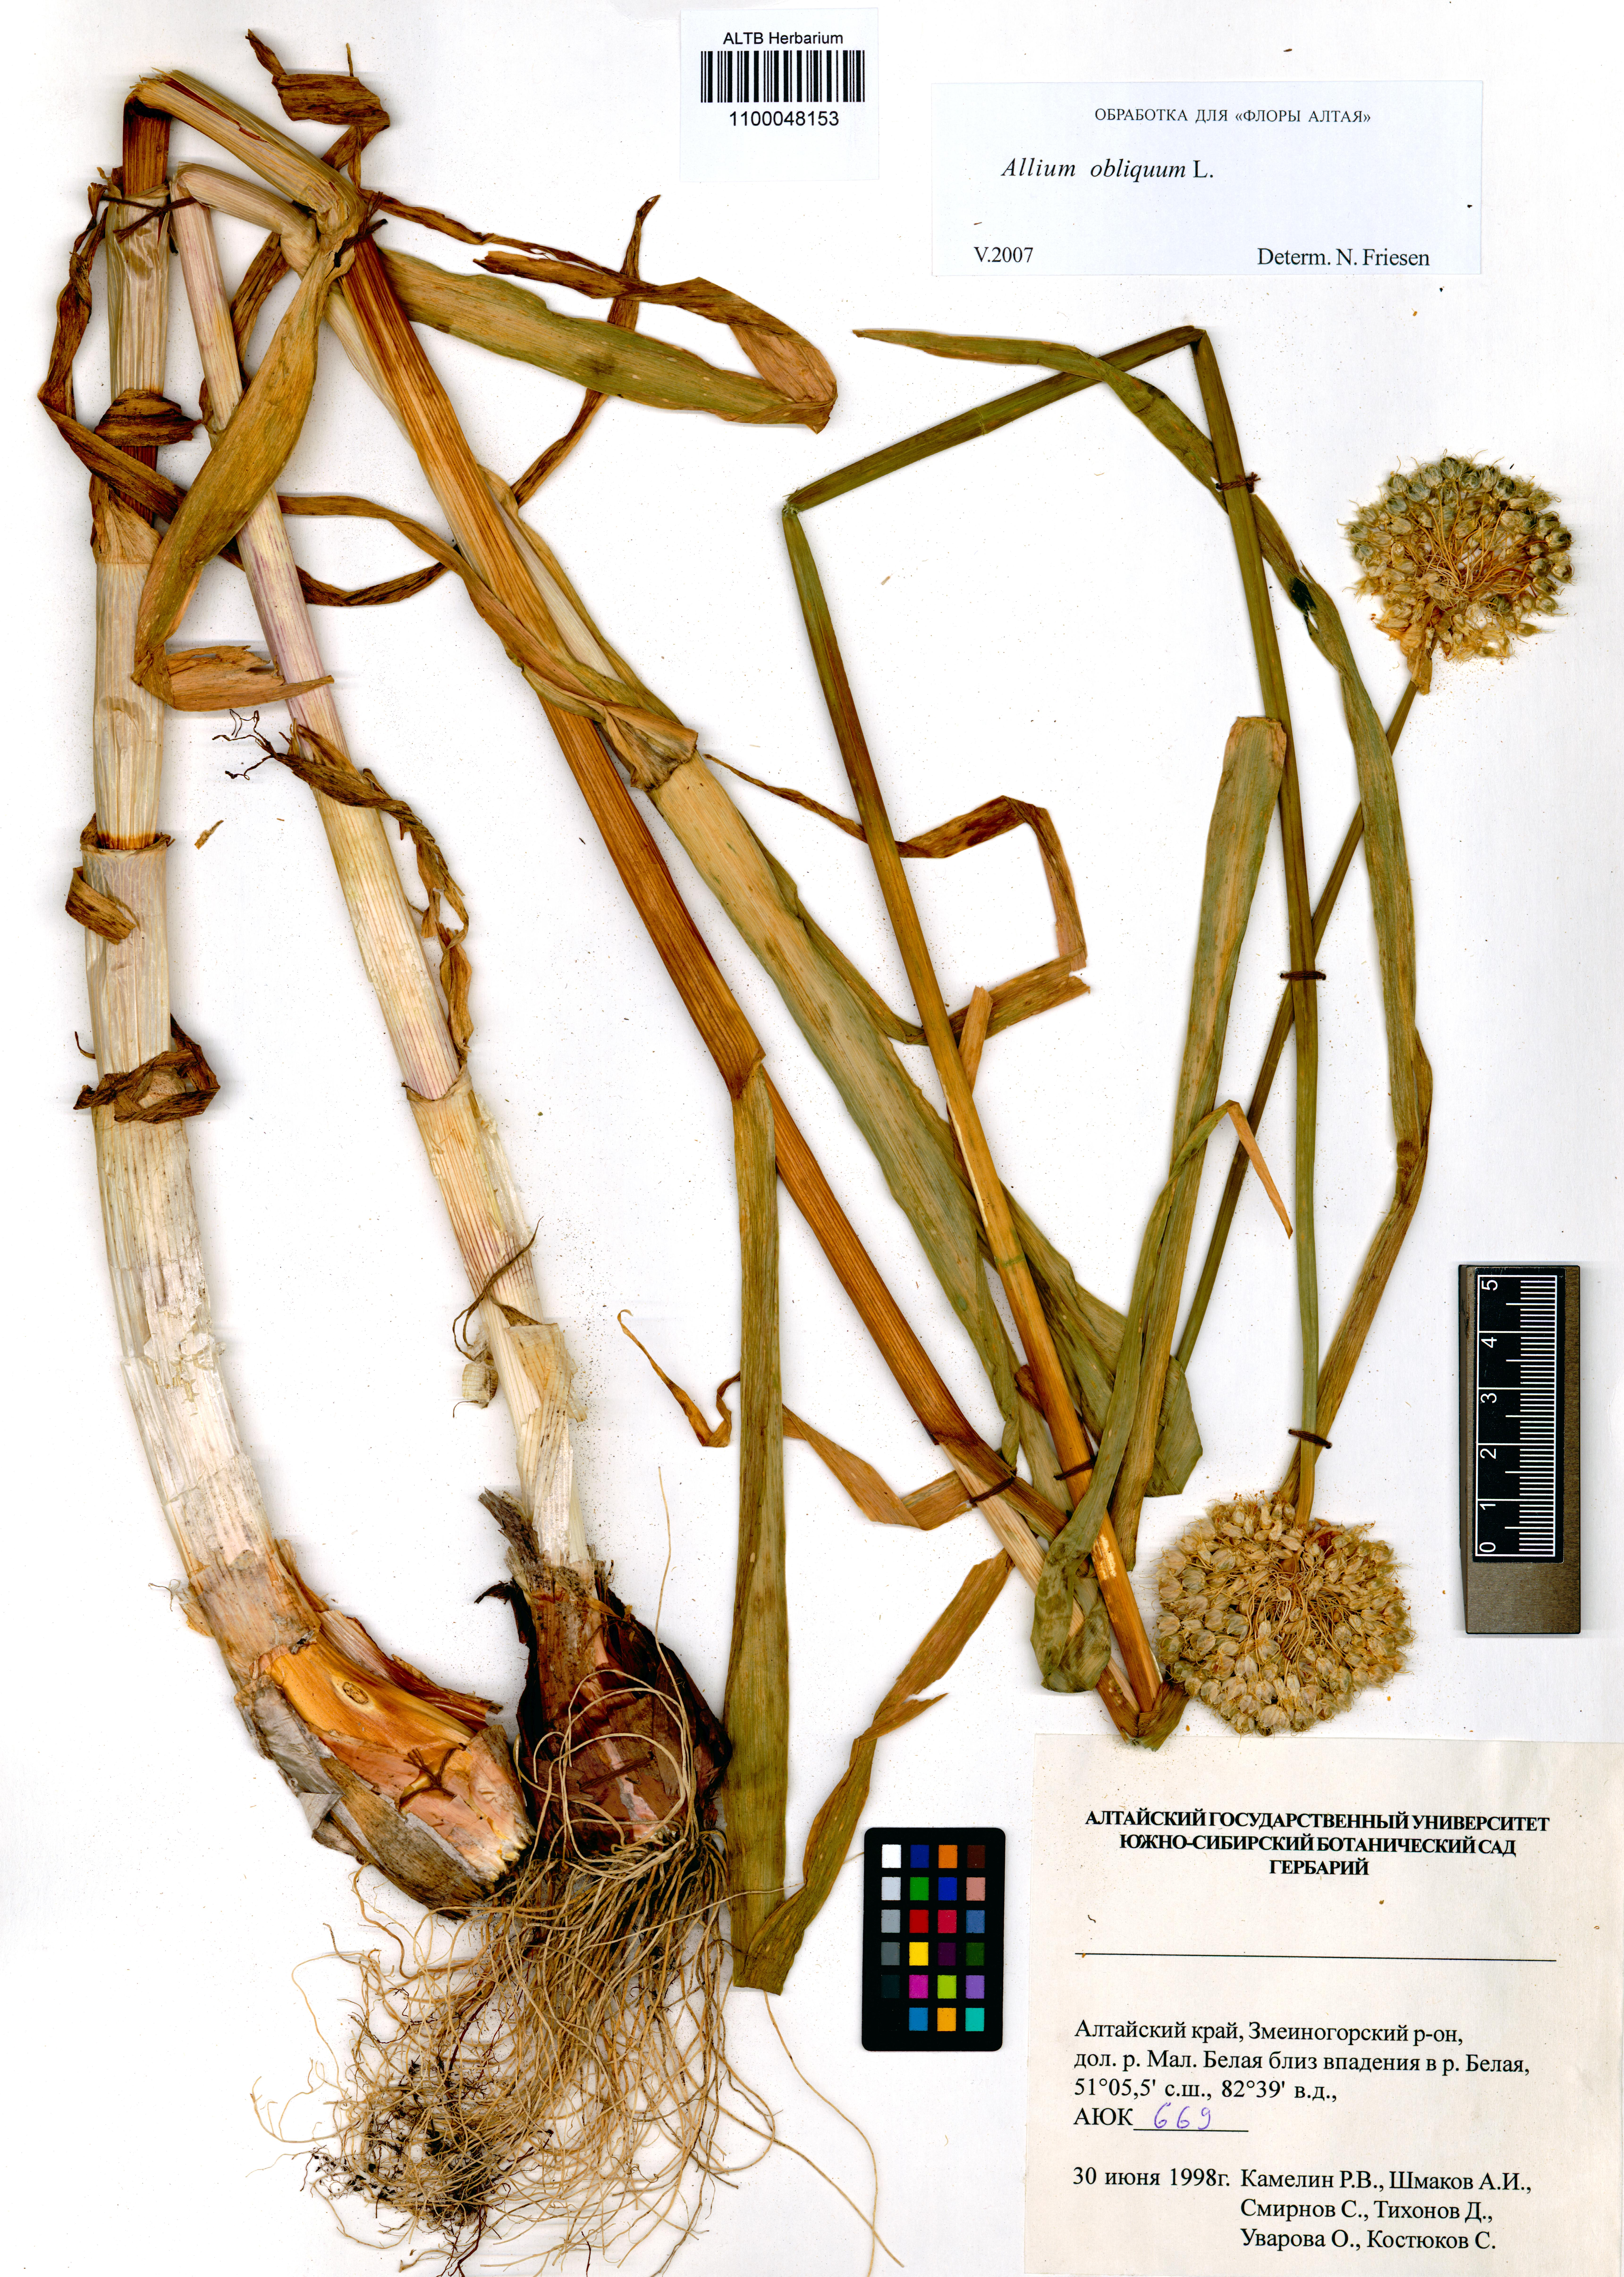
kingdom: Plantae
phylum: Tracheophyta
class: Liliopsida
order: Asparagales
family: Amaryllidaceae
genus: Allium
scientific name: Allium obliquum
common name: Oblique onion
